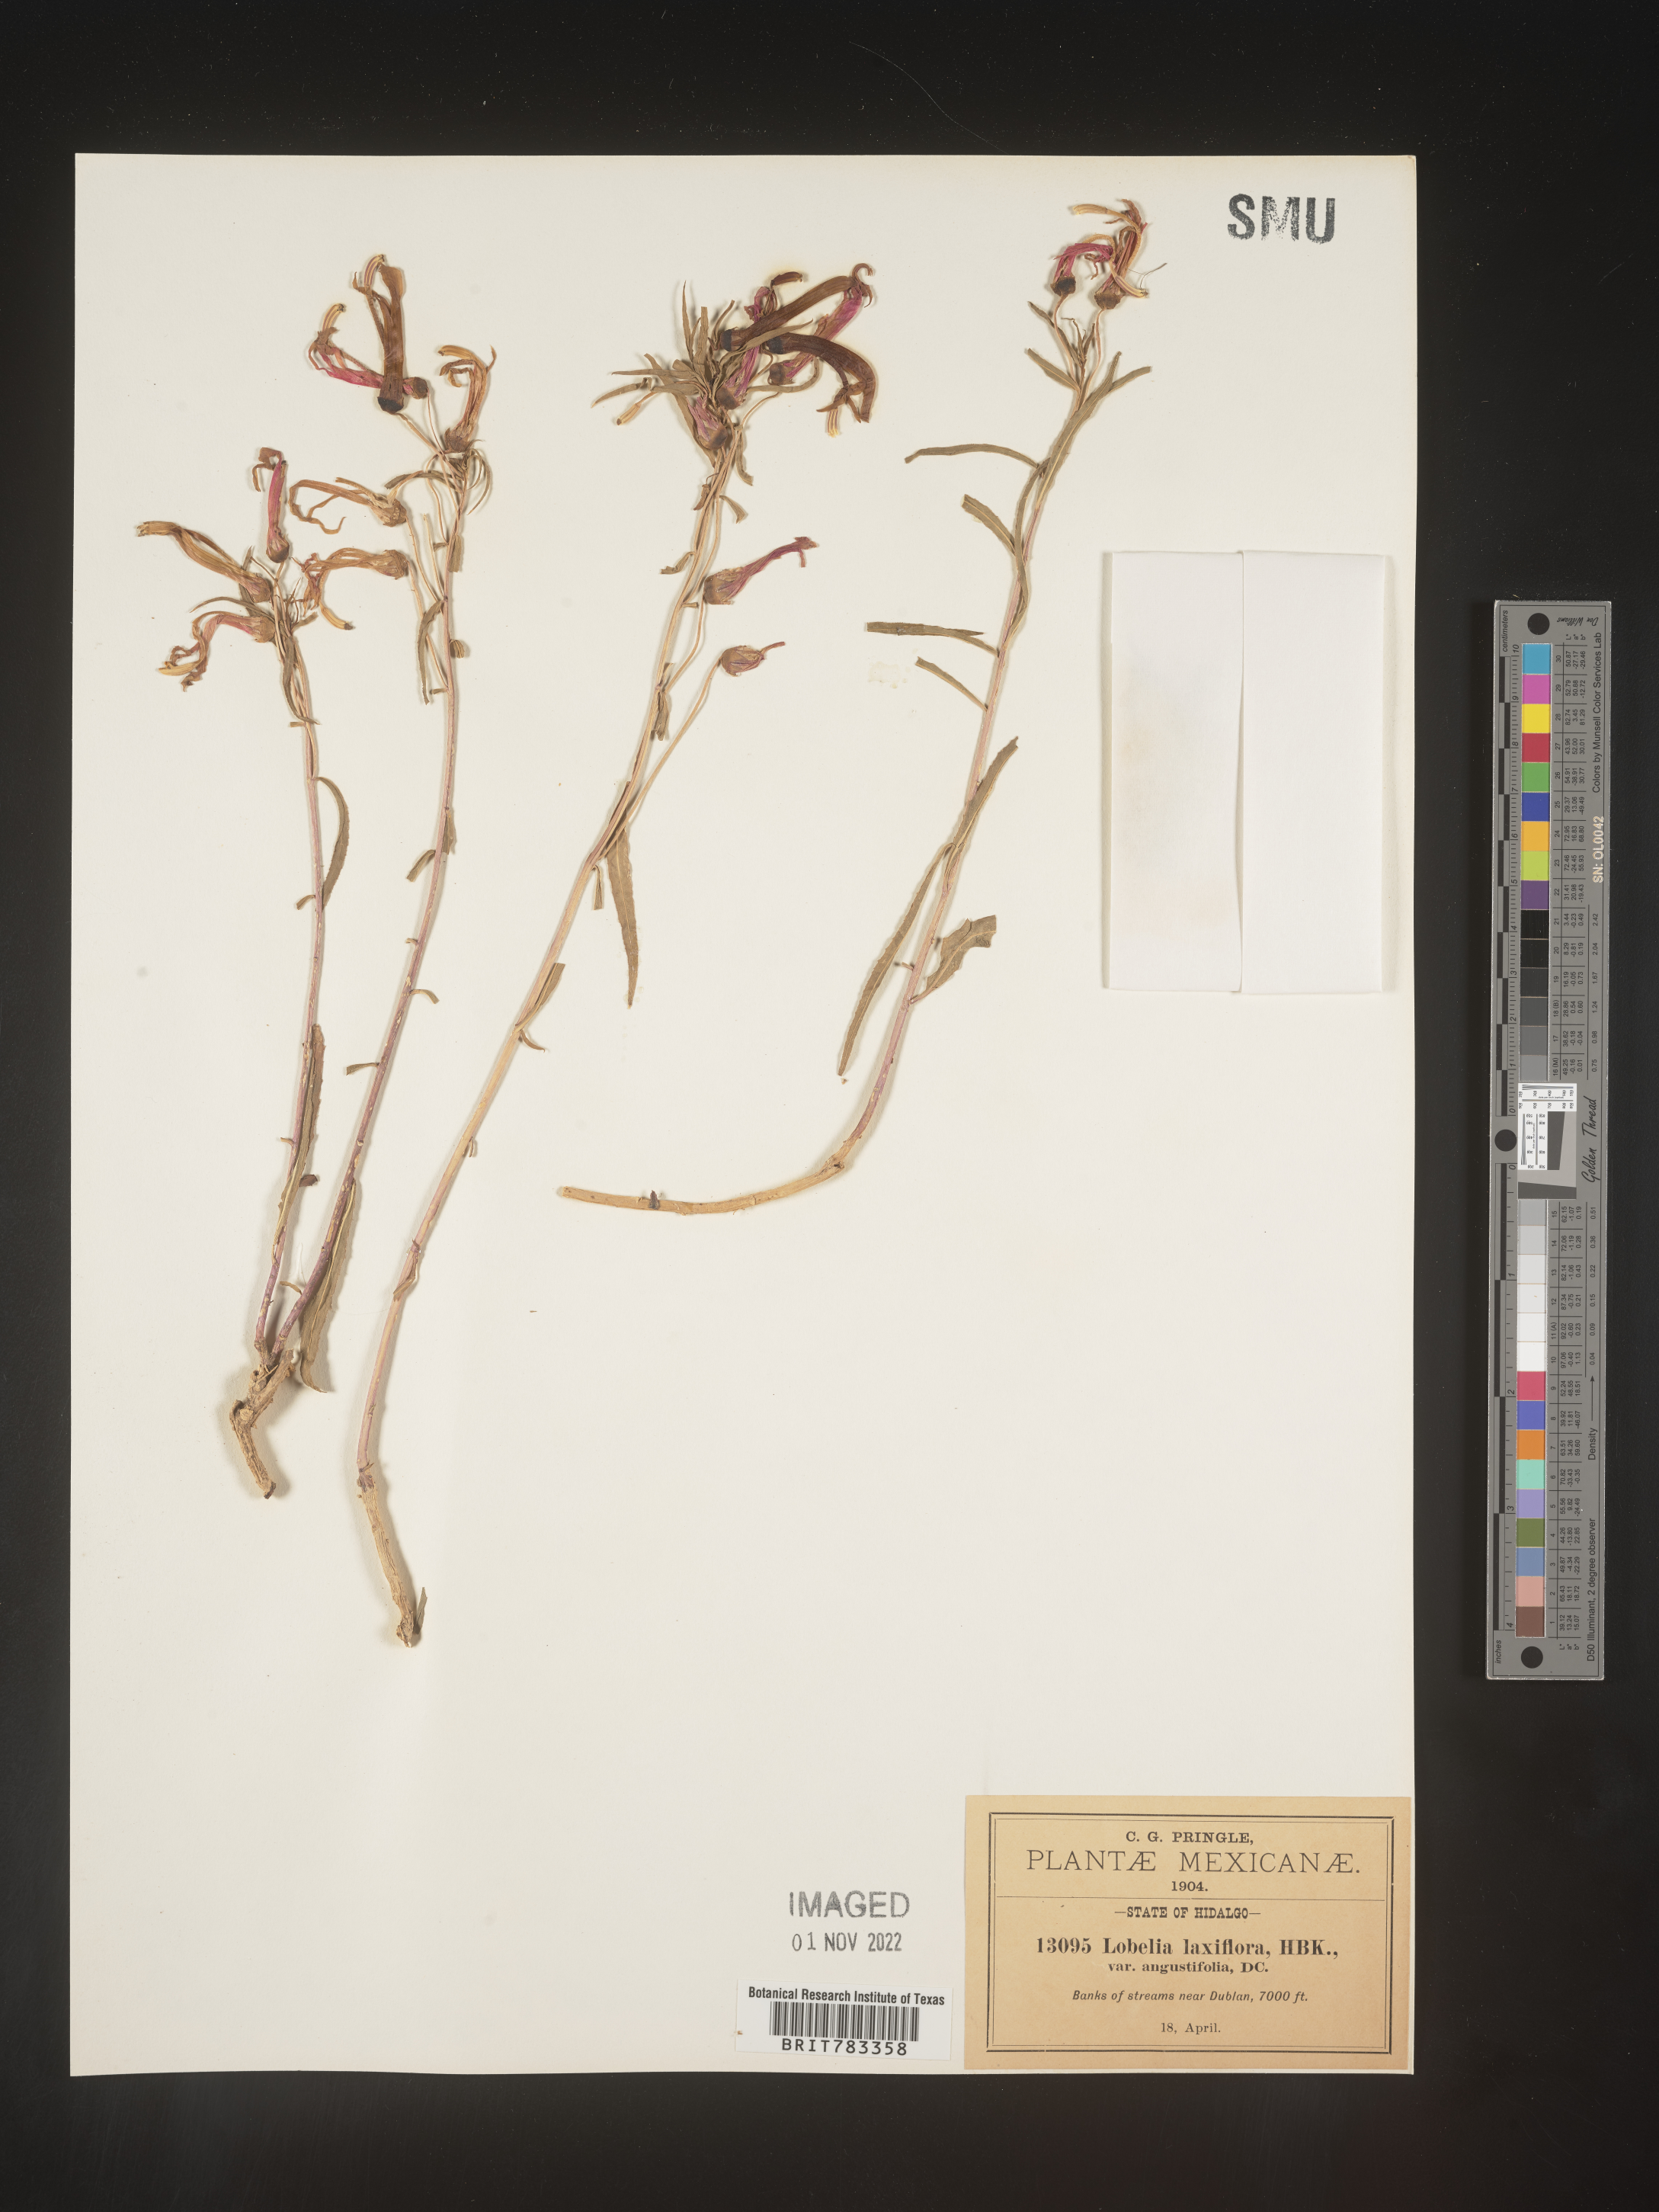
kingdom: Plantae
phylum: Tracheophyta
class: Magnoliopsida
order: Asterales
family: Campanulaceae
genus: Lobelia
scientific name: Lobelia
